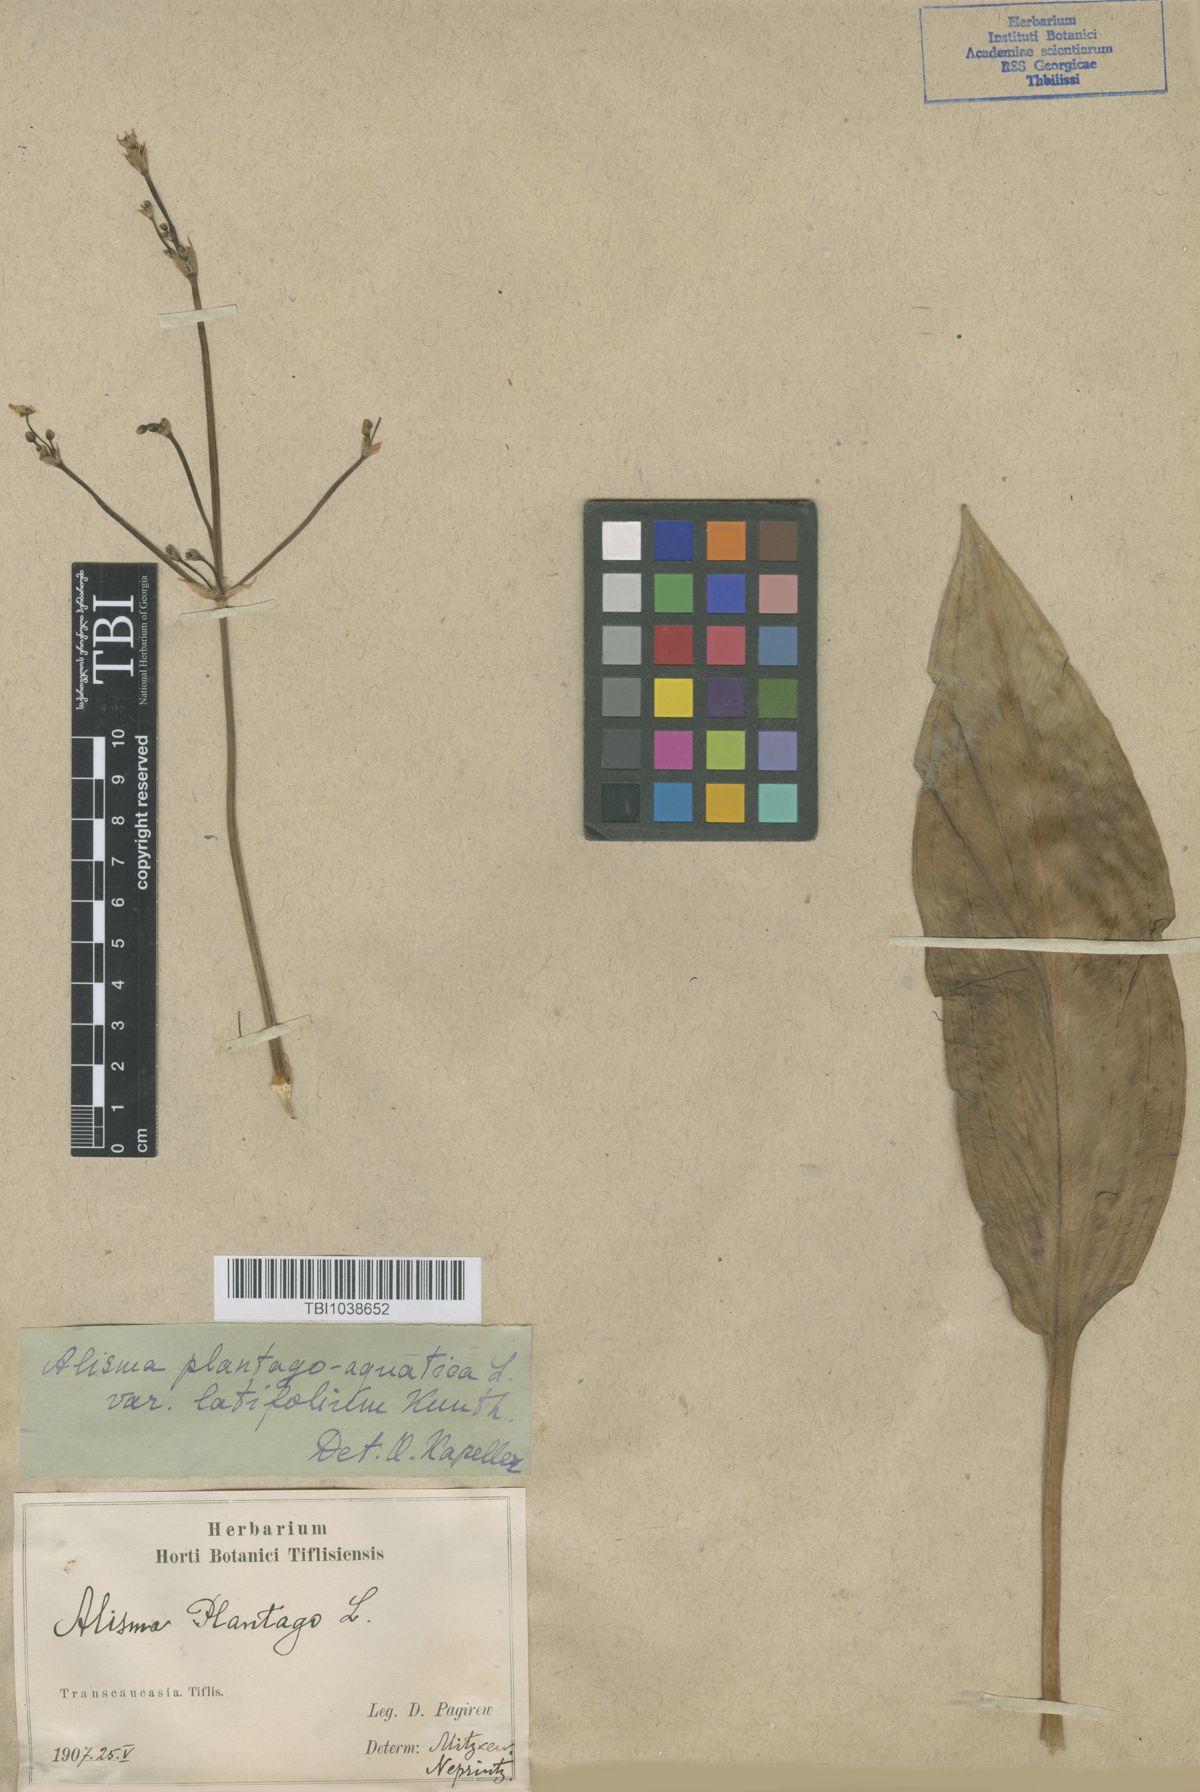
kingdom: Plantae
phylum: Tracheophyta
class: Liliopsida
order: Alismatales
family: Alismataceae
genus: Alisma
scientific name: Alisma plantago-aquatica
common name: Water-plantain
